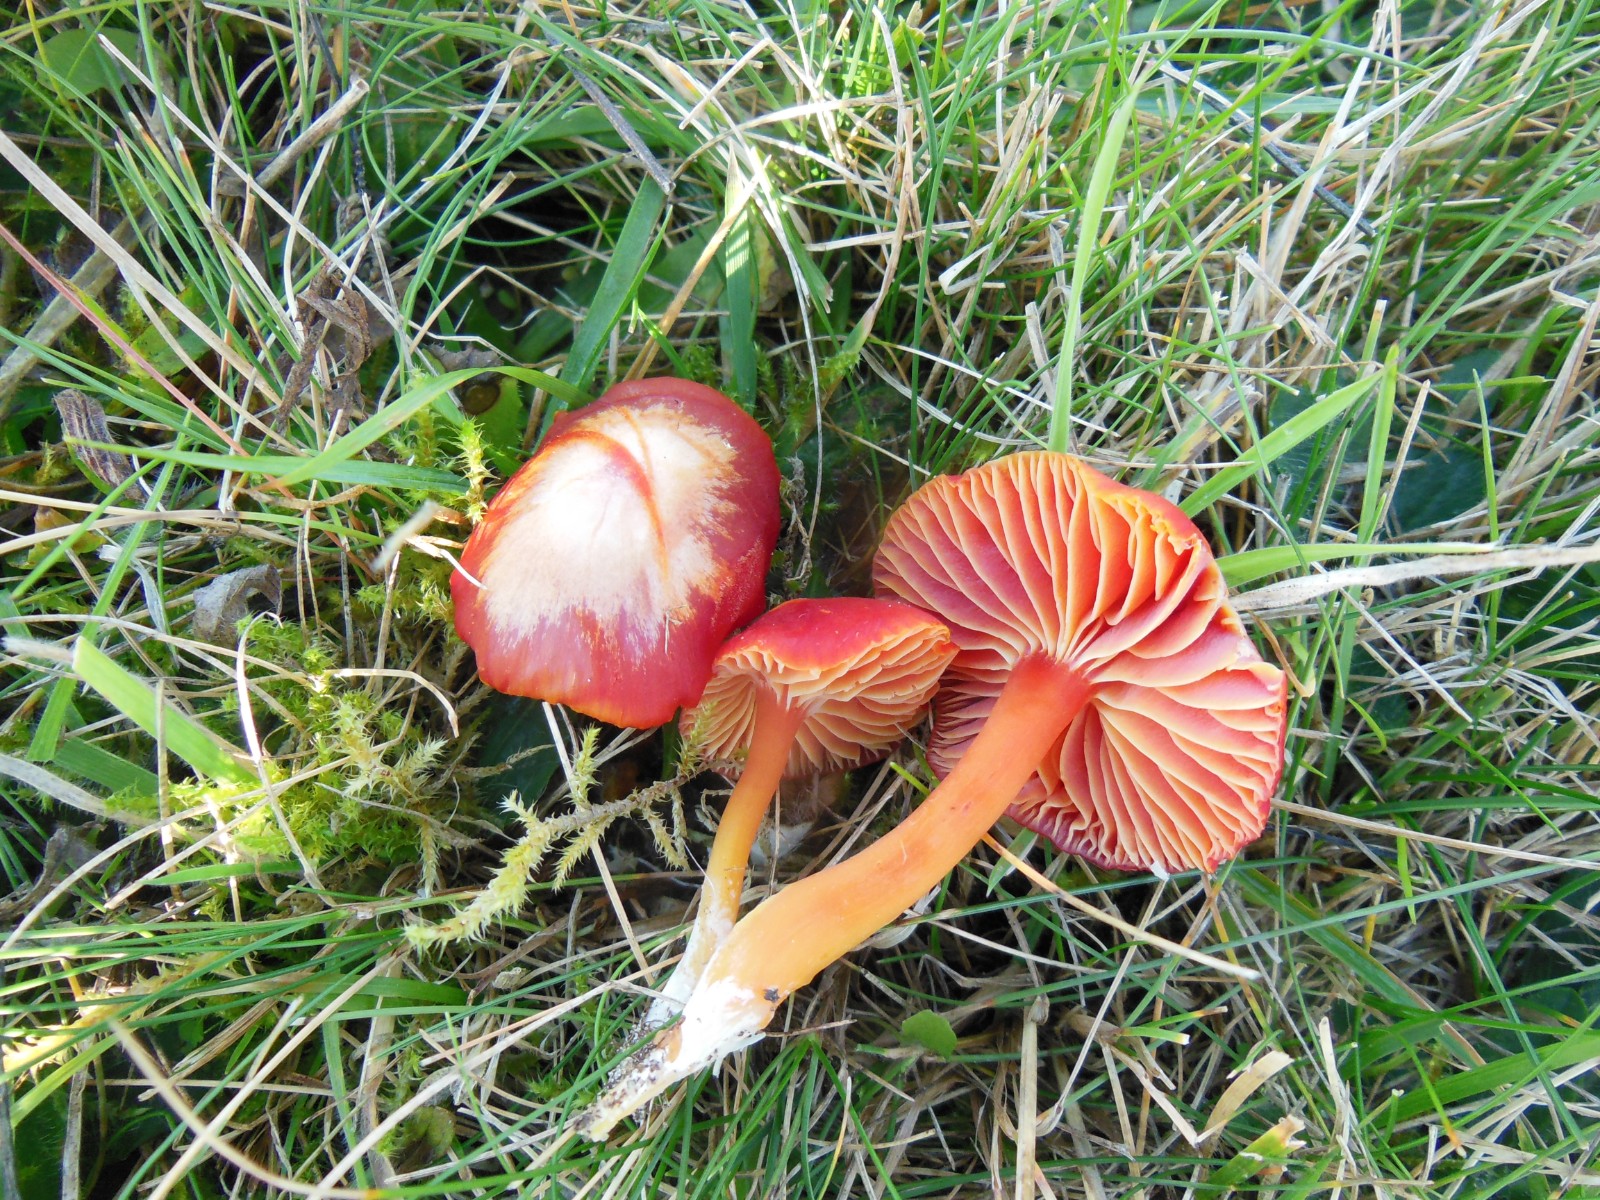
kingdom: Fungi
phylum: Basidiomycota
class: Agaricomycetes
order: Agaricales
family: Hygrophoraceae
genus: Hygrocybe
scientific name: Hygrocybe coccinea
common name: cinnober-vokshat
